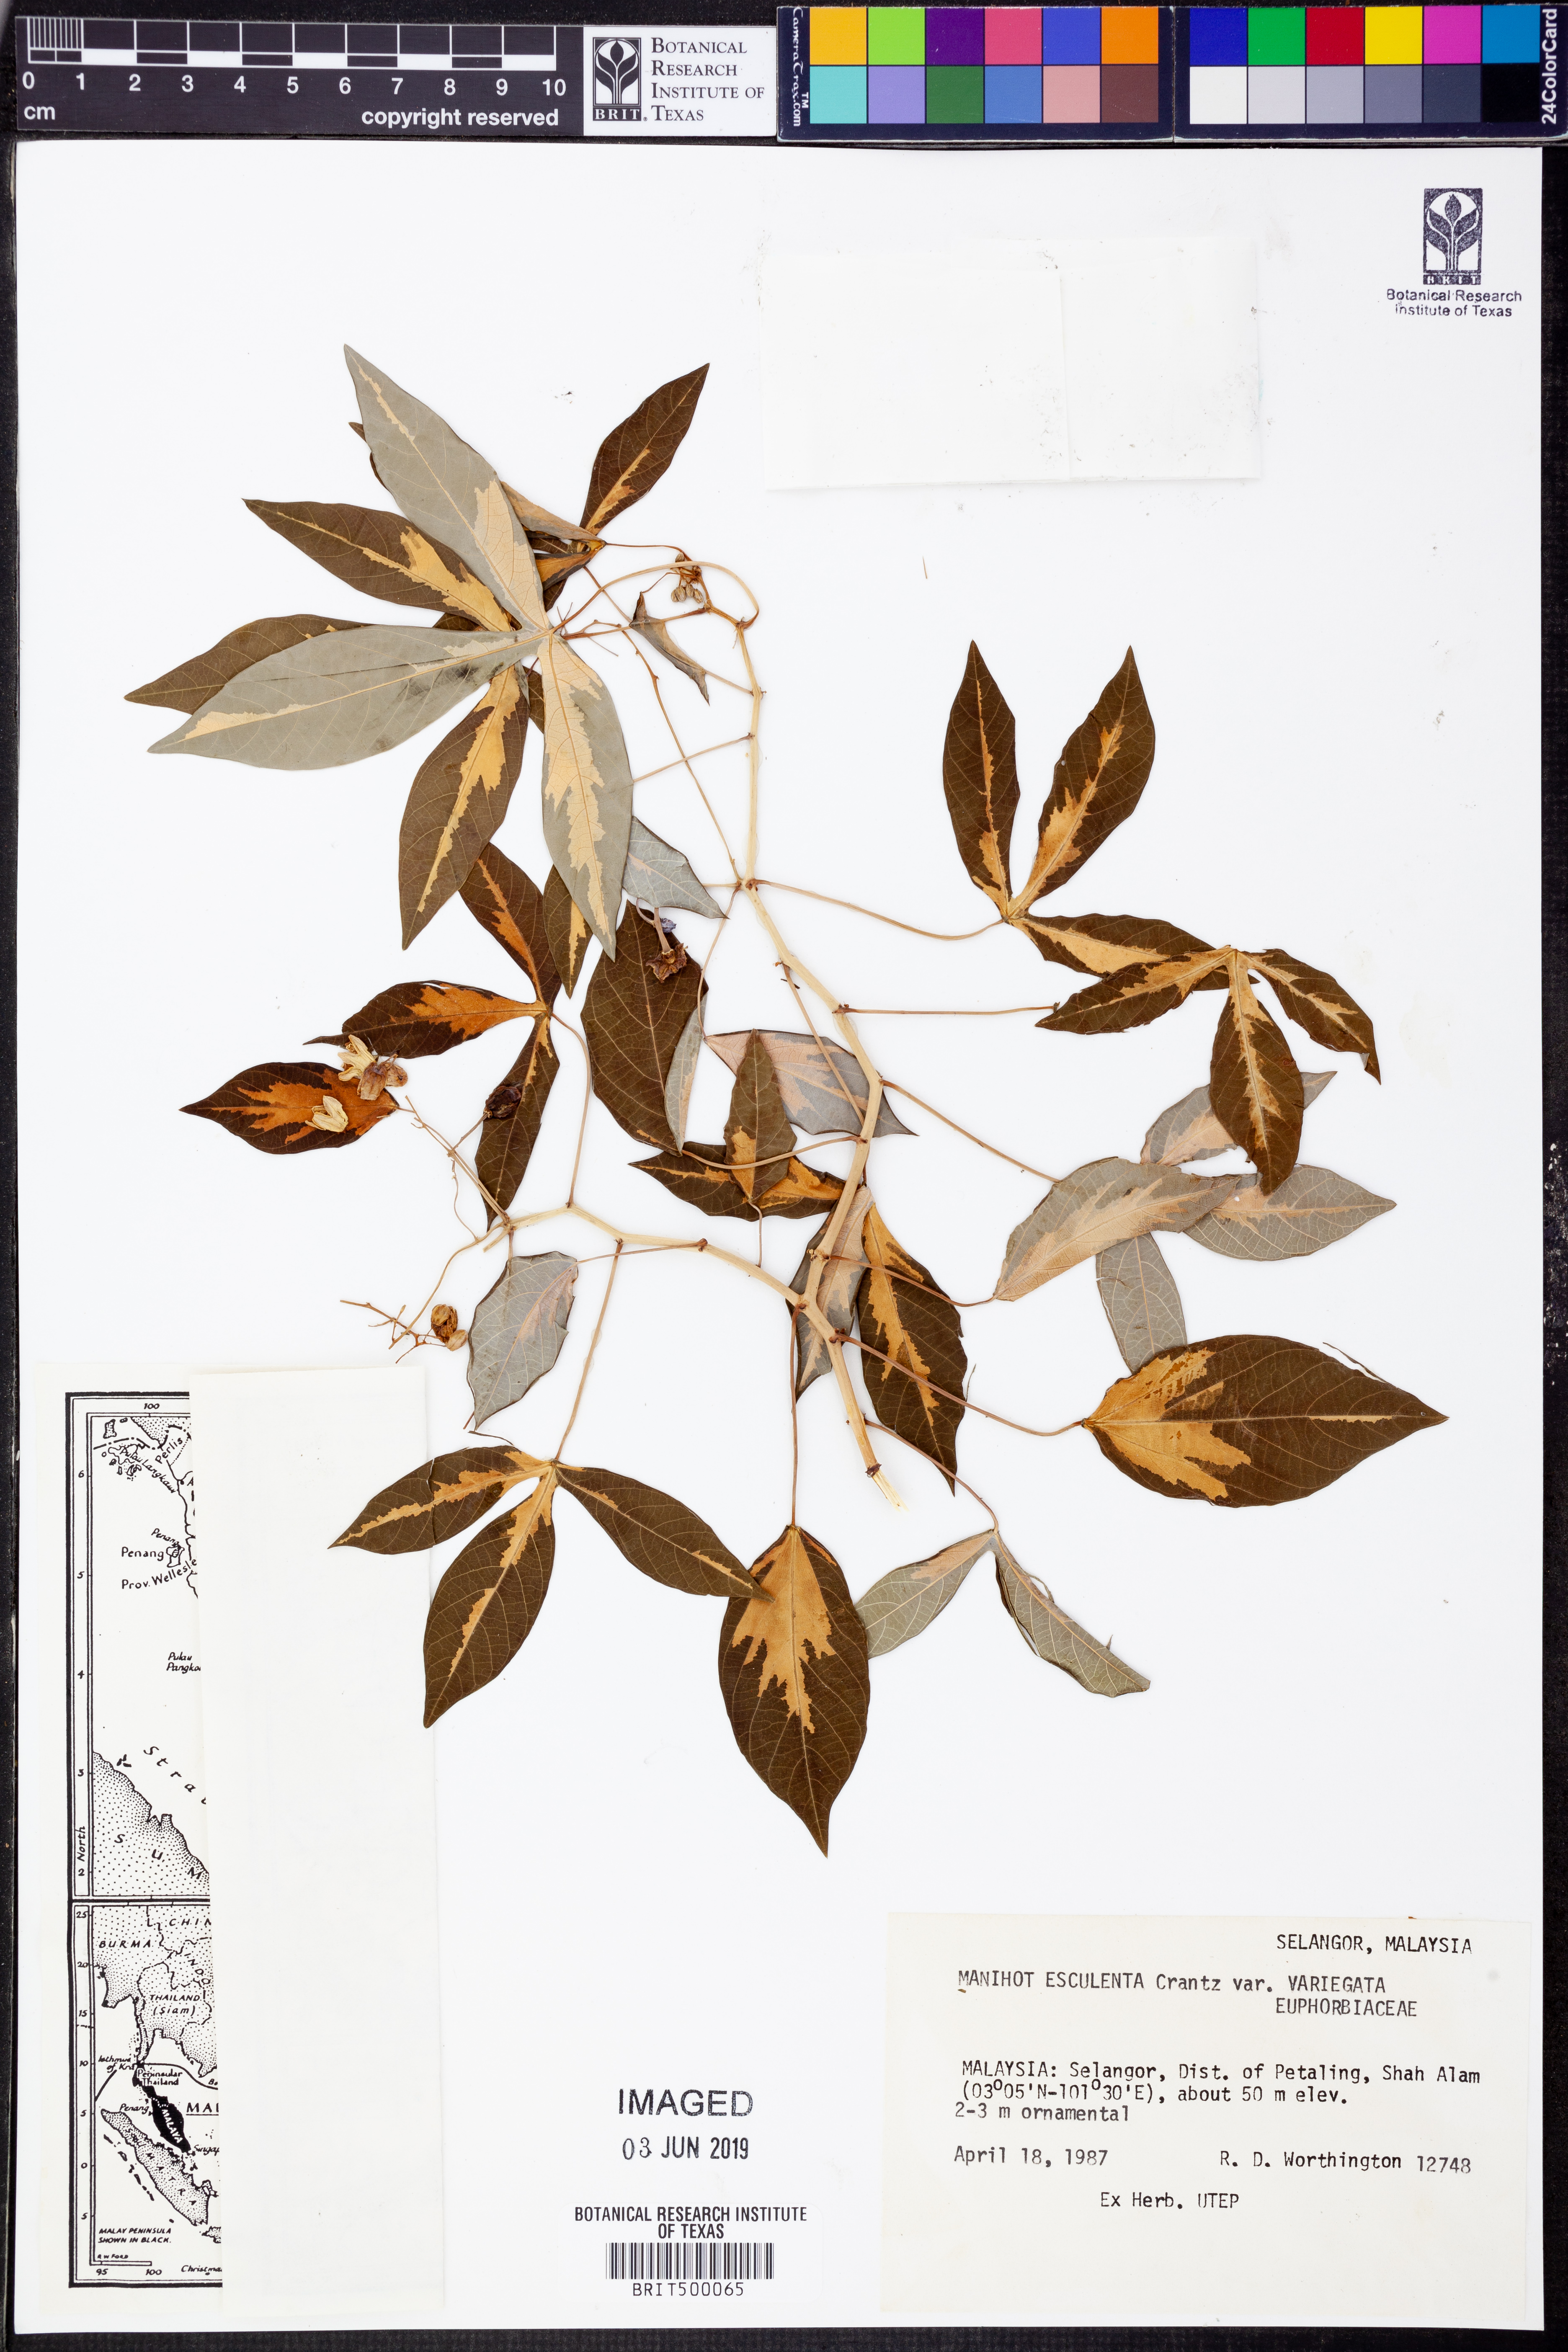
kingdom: Plantae
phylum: Tracheophyta
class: Magnoliopsida
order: Malpighiales
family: Euphorbiaceae
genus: Manihot
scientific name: Manihot esculenta
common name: Cassava
